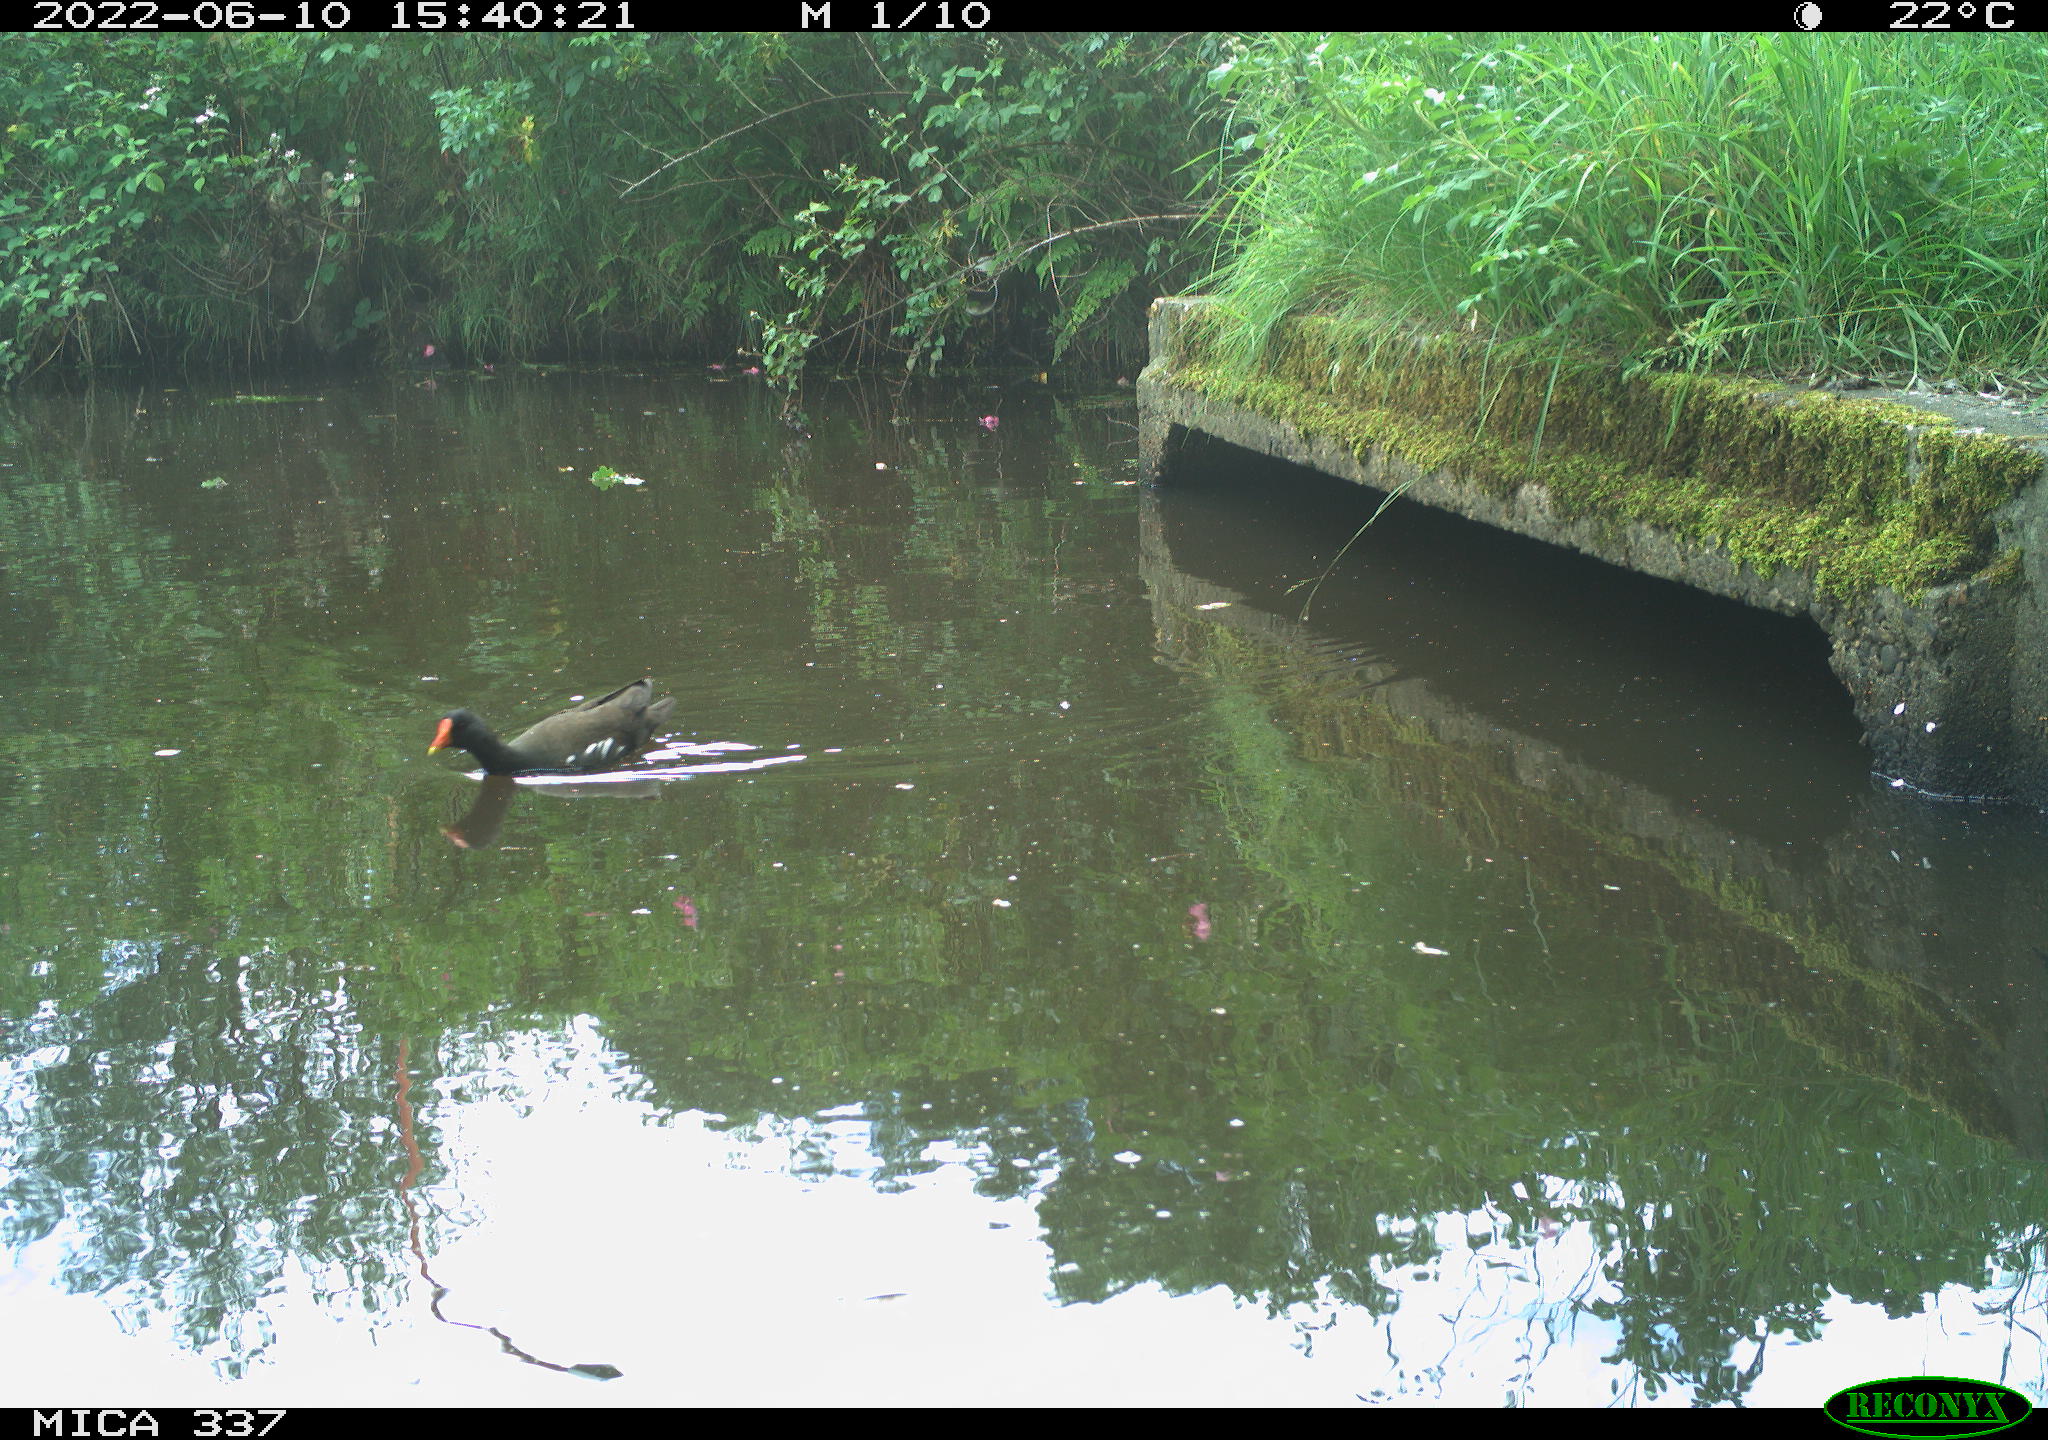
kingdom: Animalia
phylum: Chordata
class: Aves
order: Gruiformes
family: Rallidae
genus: Gallinula
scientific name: Gallinula chloropus
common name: Common moorhen
